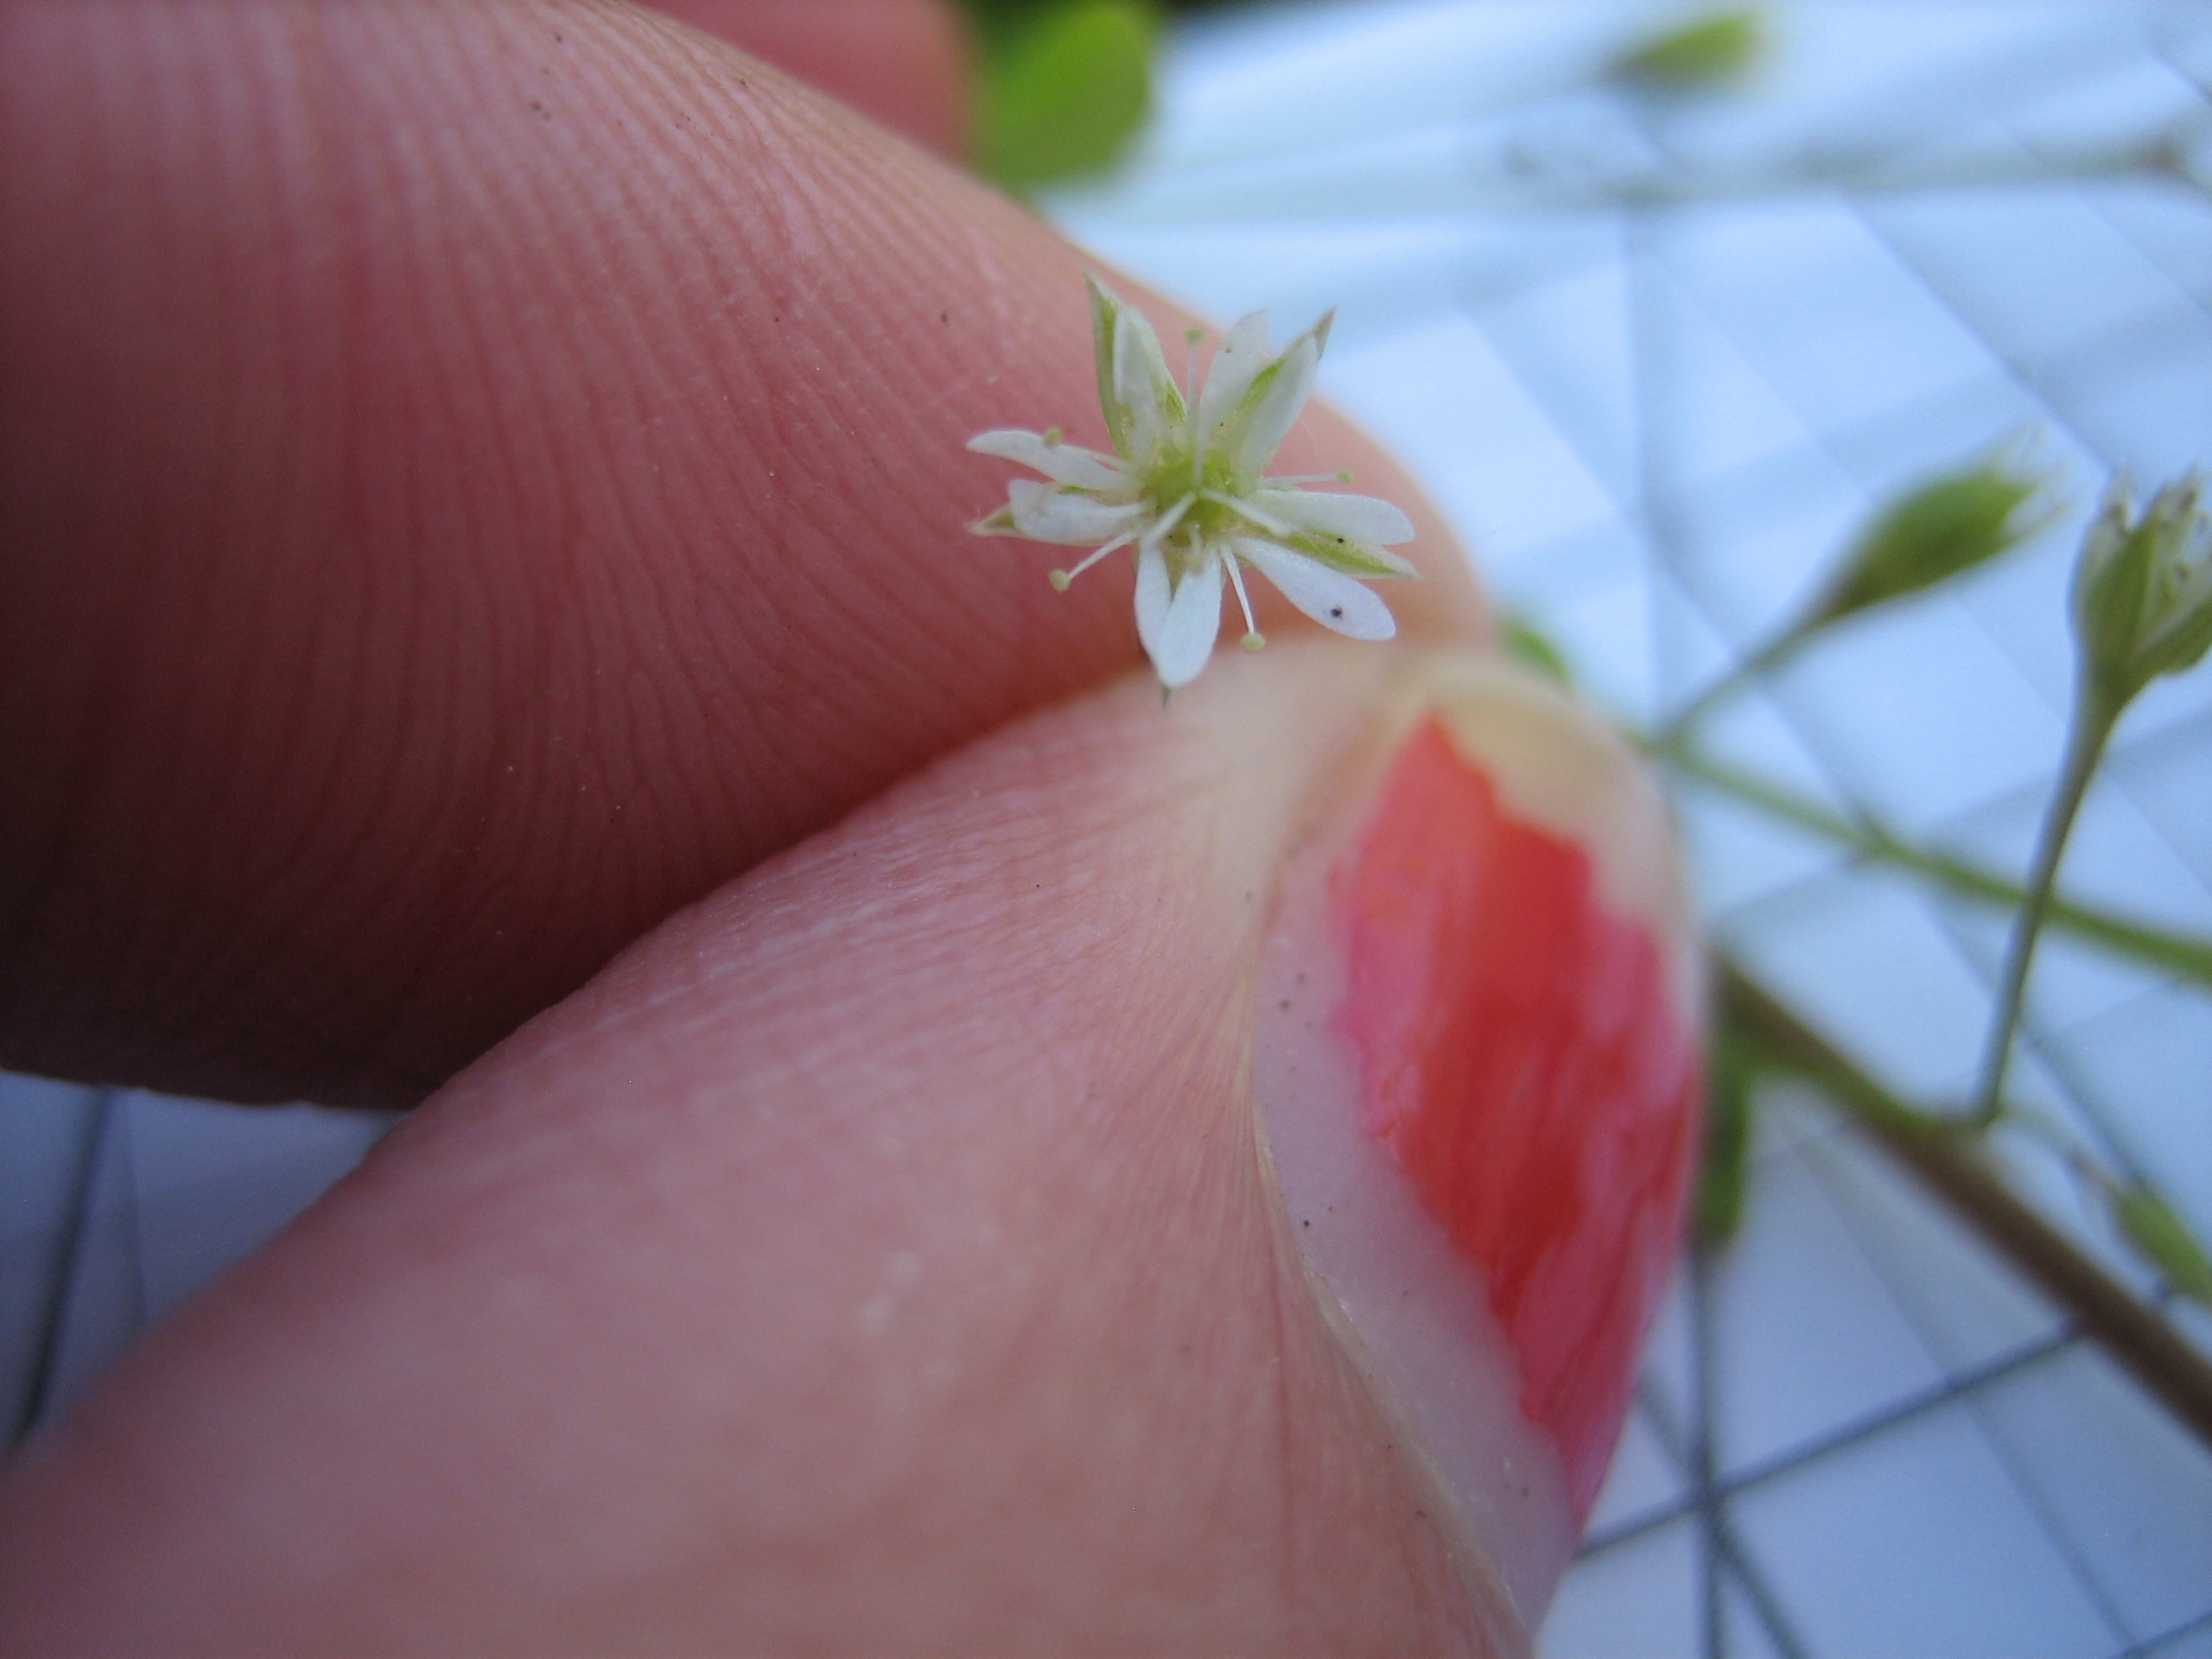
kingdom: Plantae
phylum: Tracheophyta
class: Magnoliopsida
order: Caryophyllales
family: Caryophyllaceae
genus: Stellaria
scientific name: Stellaria alsine
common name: Sump-fladstjerne
